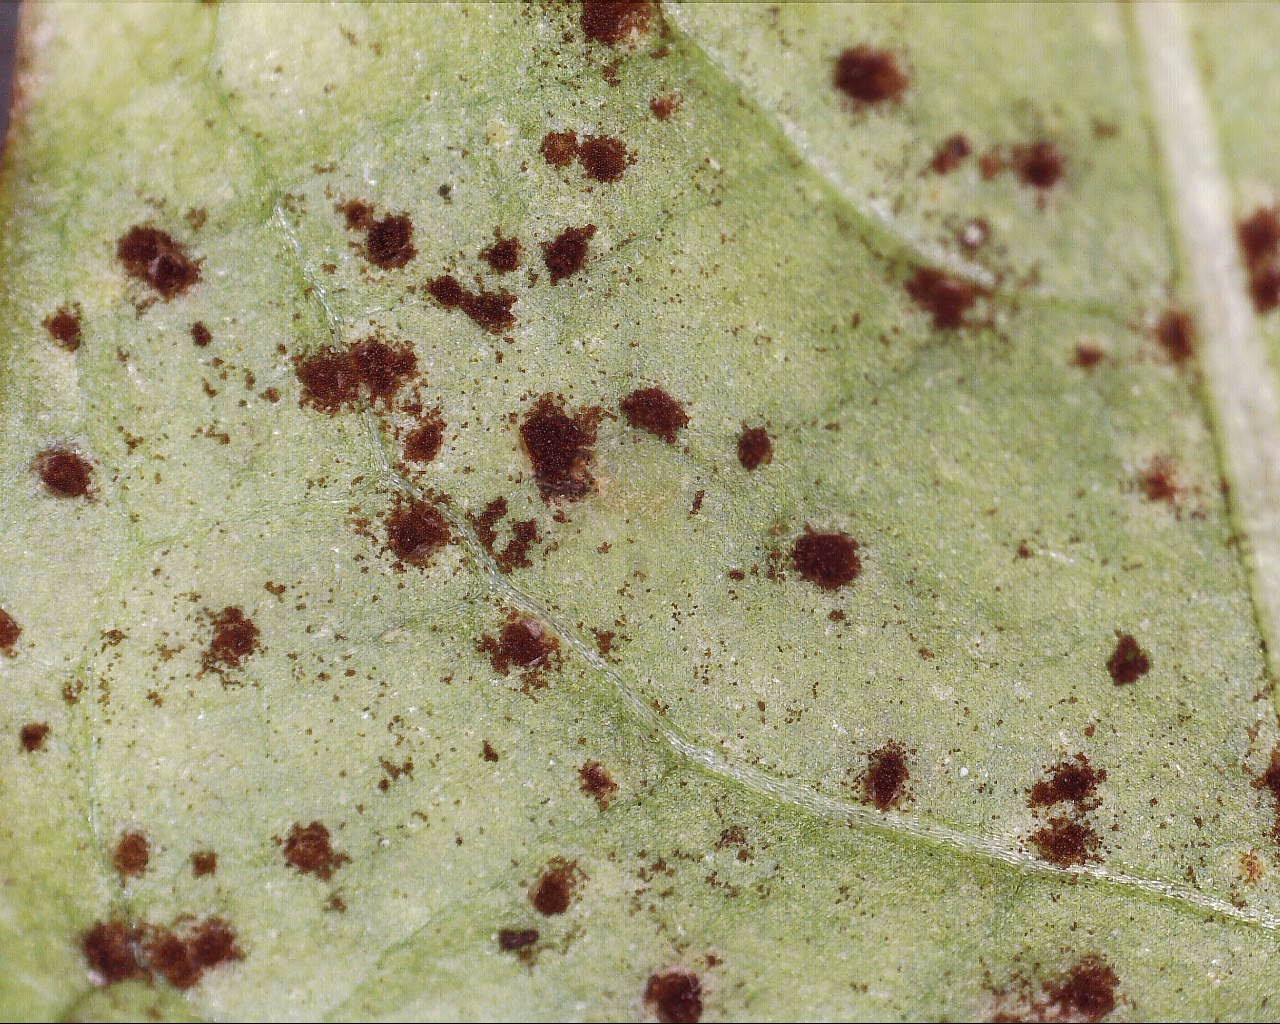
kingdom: Fungi
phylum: Basidiomycota
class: Pucciniomycetes
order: Pucciniales
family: Pucciniaceae
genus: Puccinia
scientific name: Puccinia hieracii
